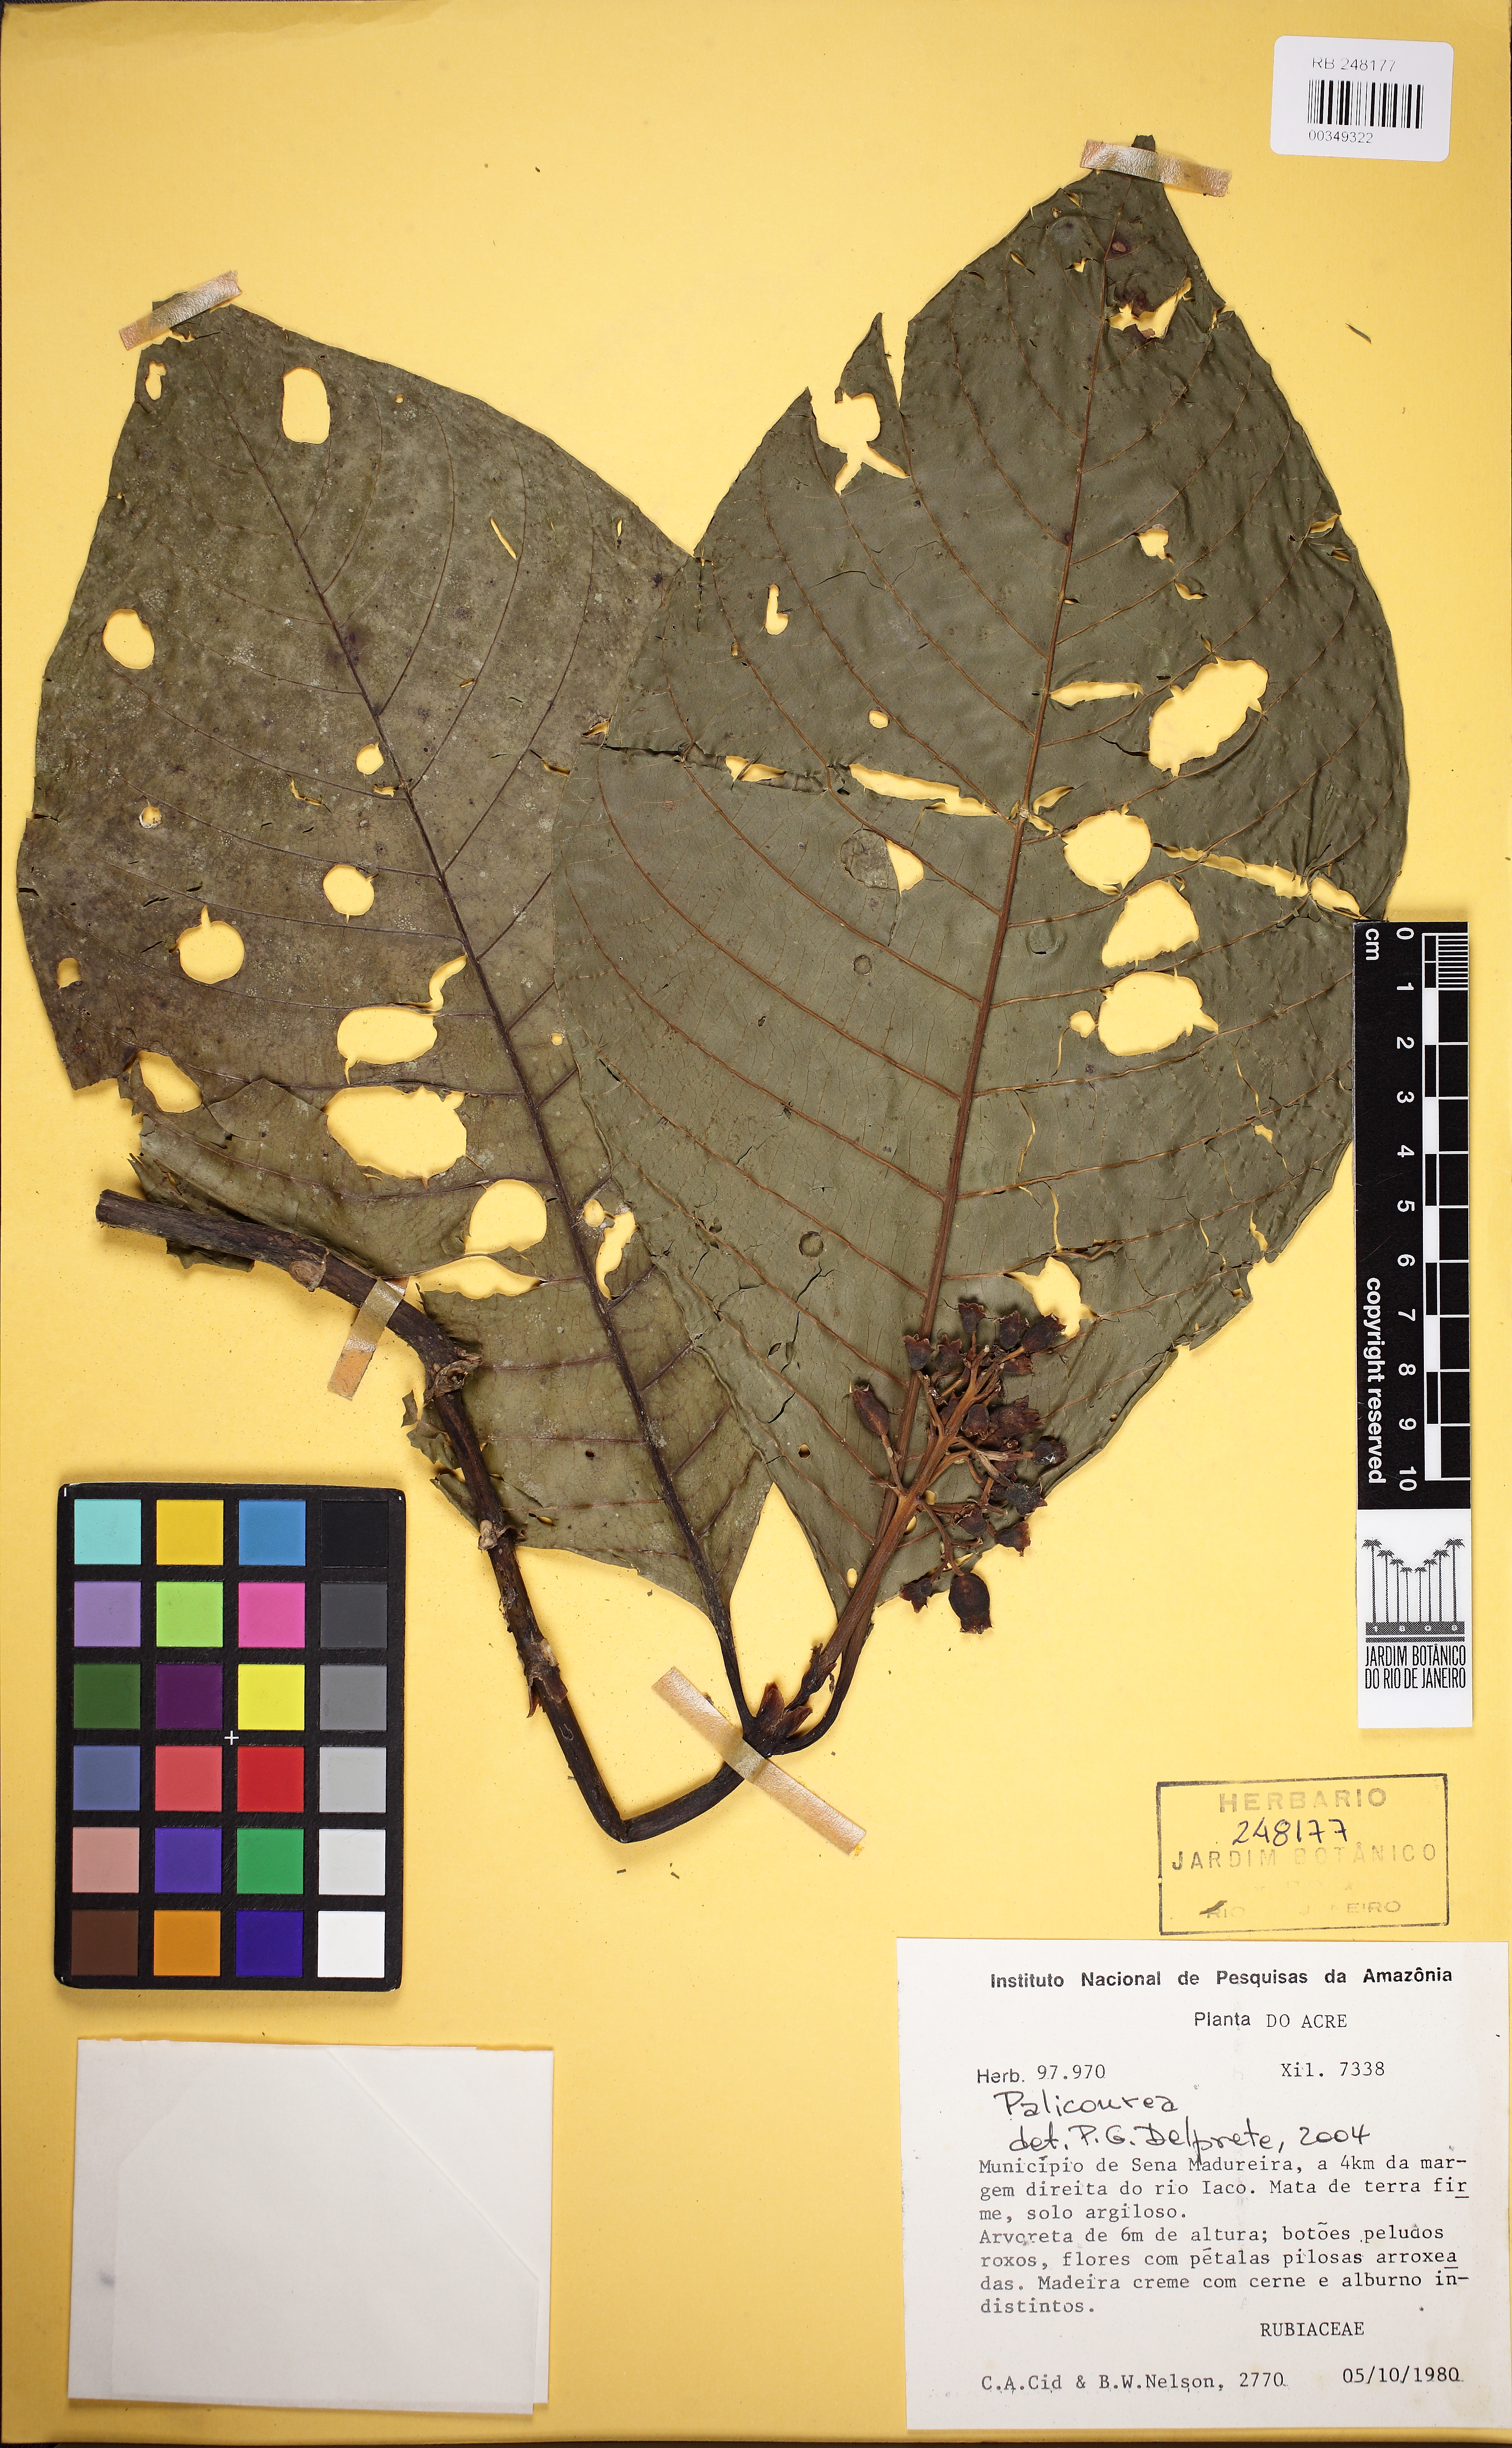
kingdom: Plantae
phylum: Tracheophyta
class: Magnoliopsida
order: Gentianales
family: Rubiaceae
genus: Palicourea
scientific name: Palicourea
